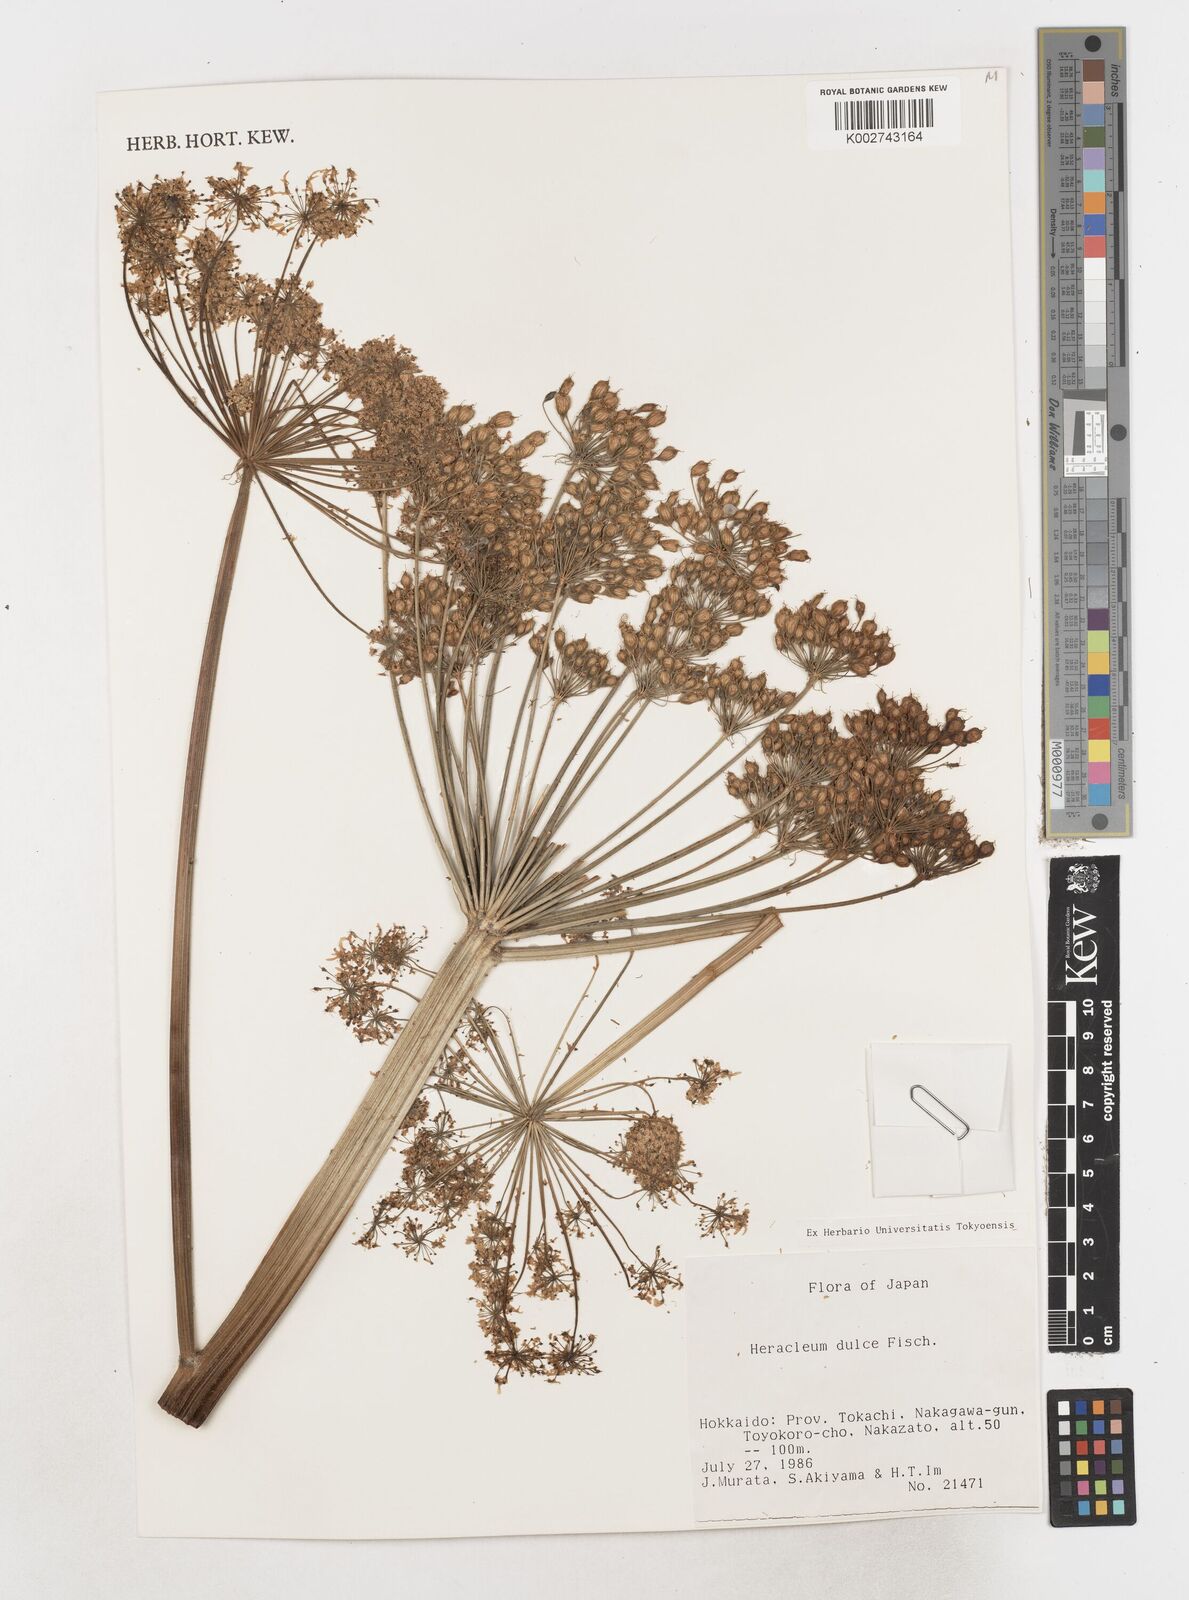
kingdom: Plantae
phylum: Tracheophyta
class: Magnoliopsida
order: Apiales
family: Apiaceae
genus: Heracleum
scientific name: Heracleum
